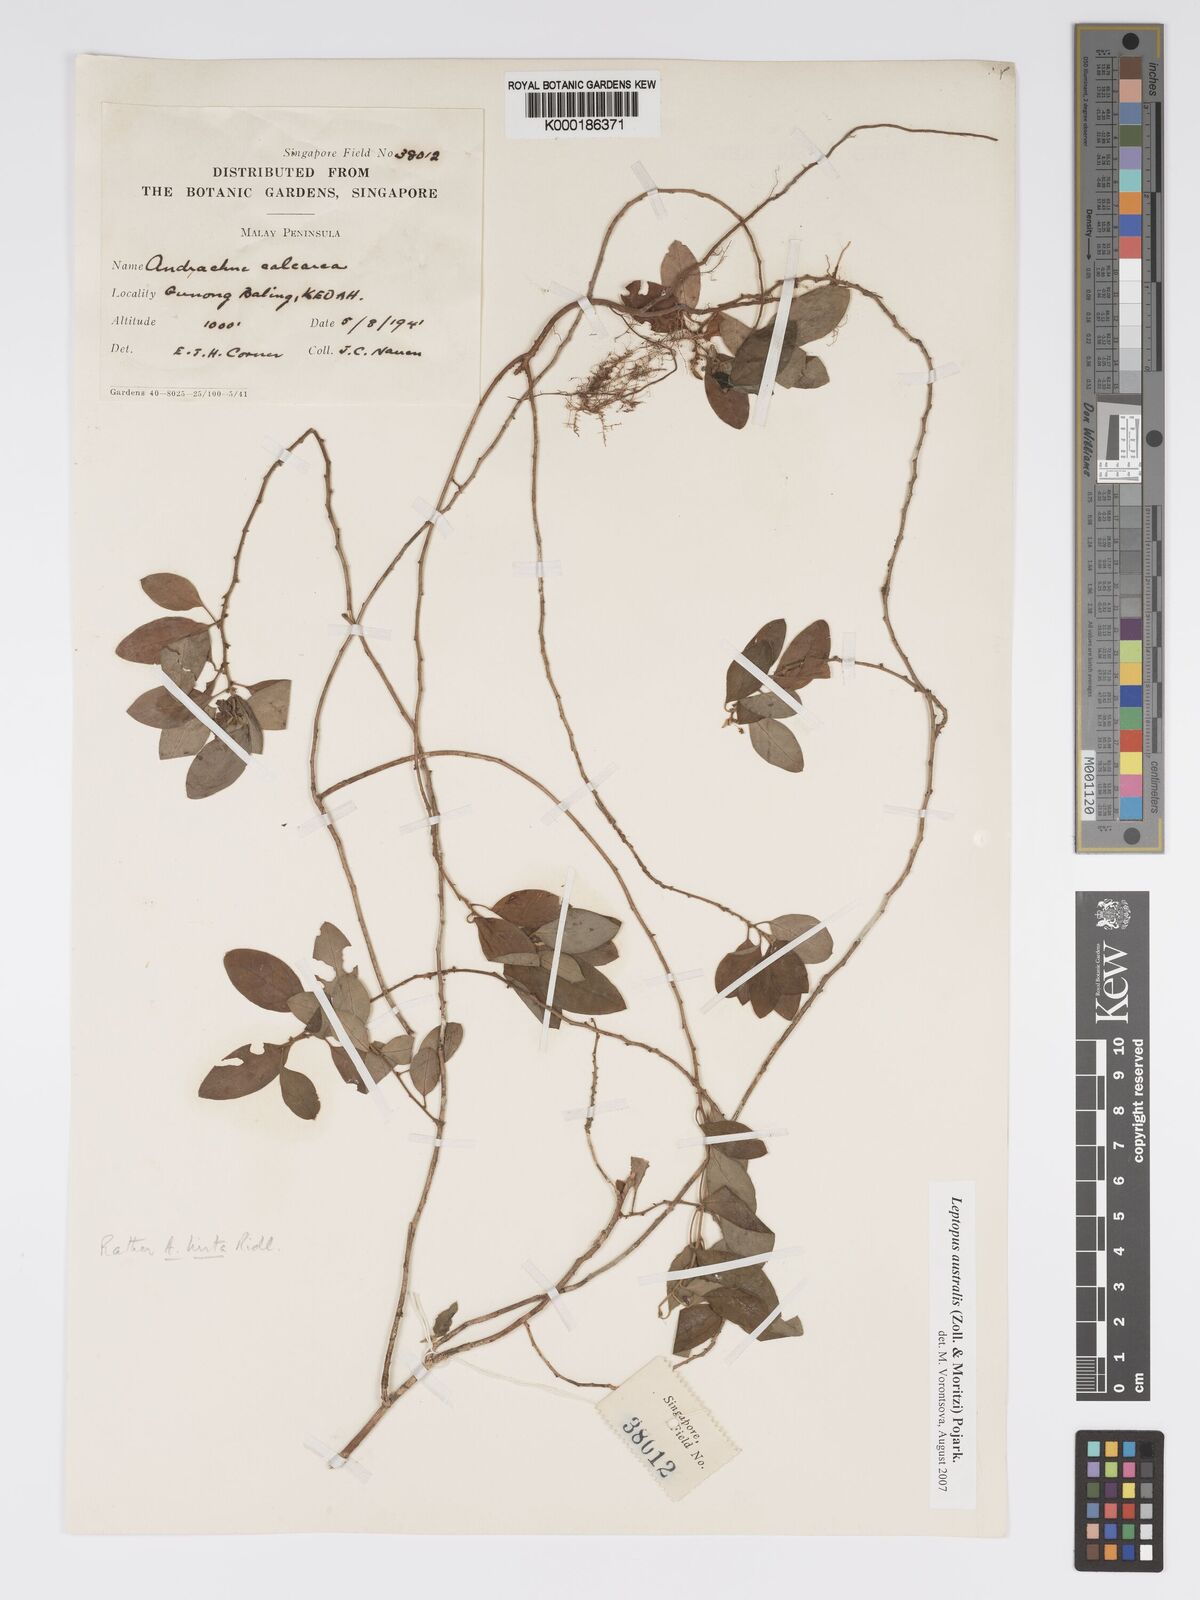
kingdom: Plantae
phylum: Tracheophyta
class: Magnoliopsida
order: Malpighiales
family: Phyllanthaceae
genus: Leptopus
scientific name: Leptopus australis
